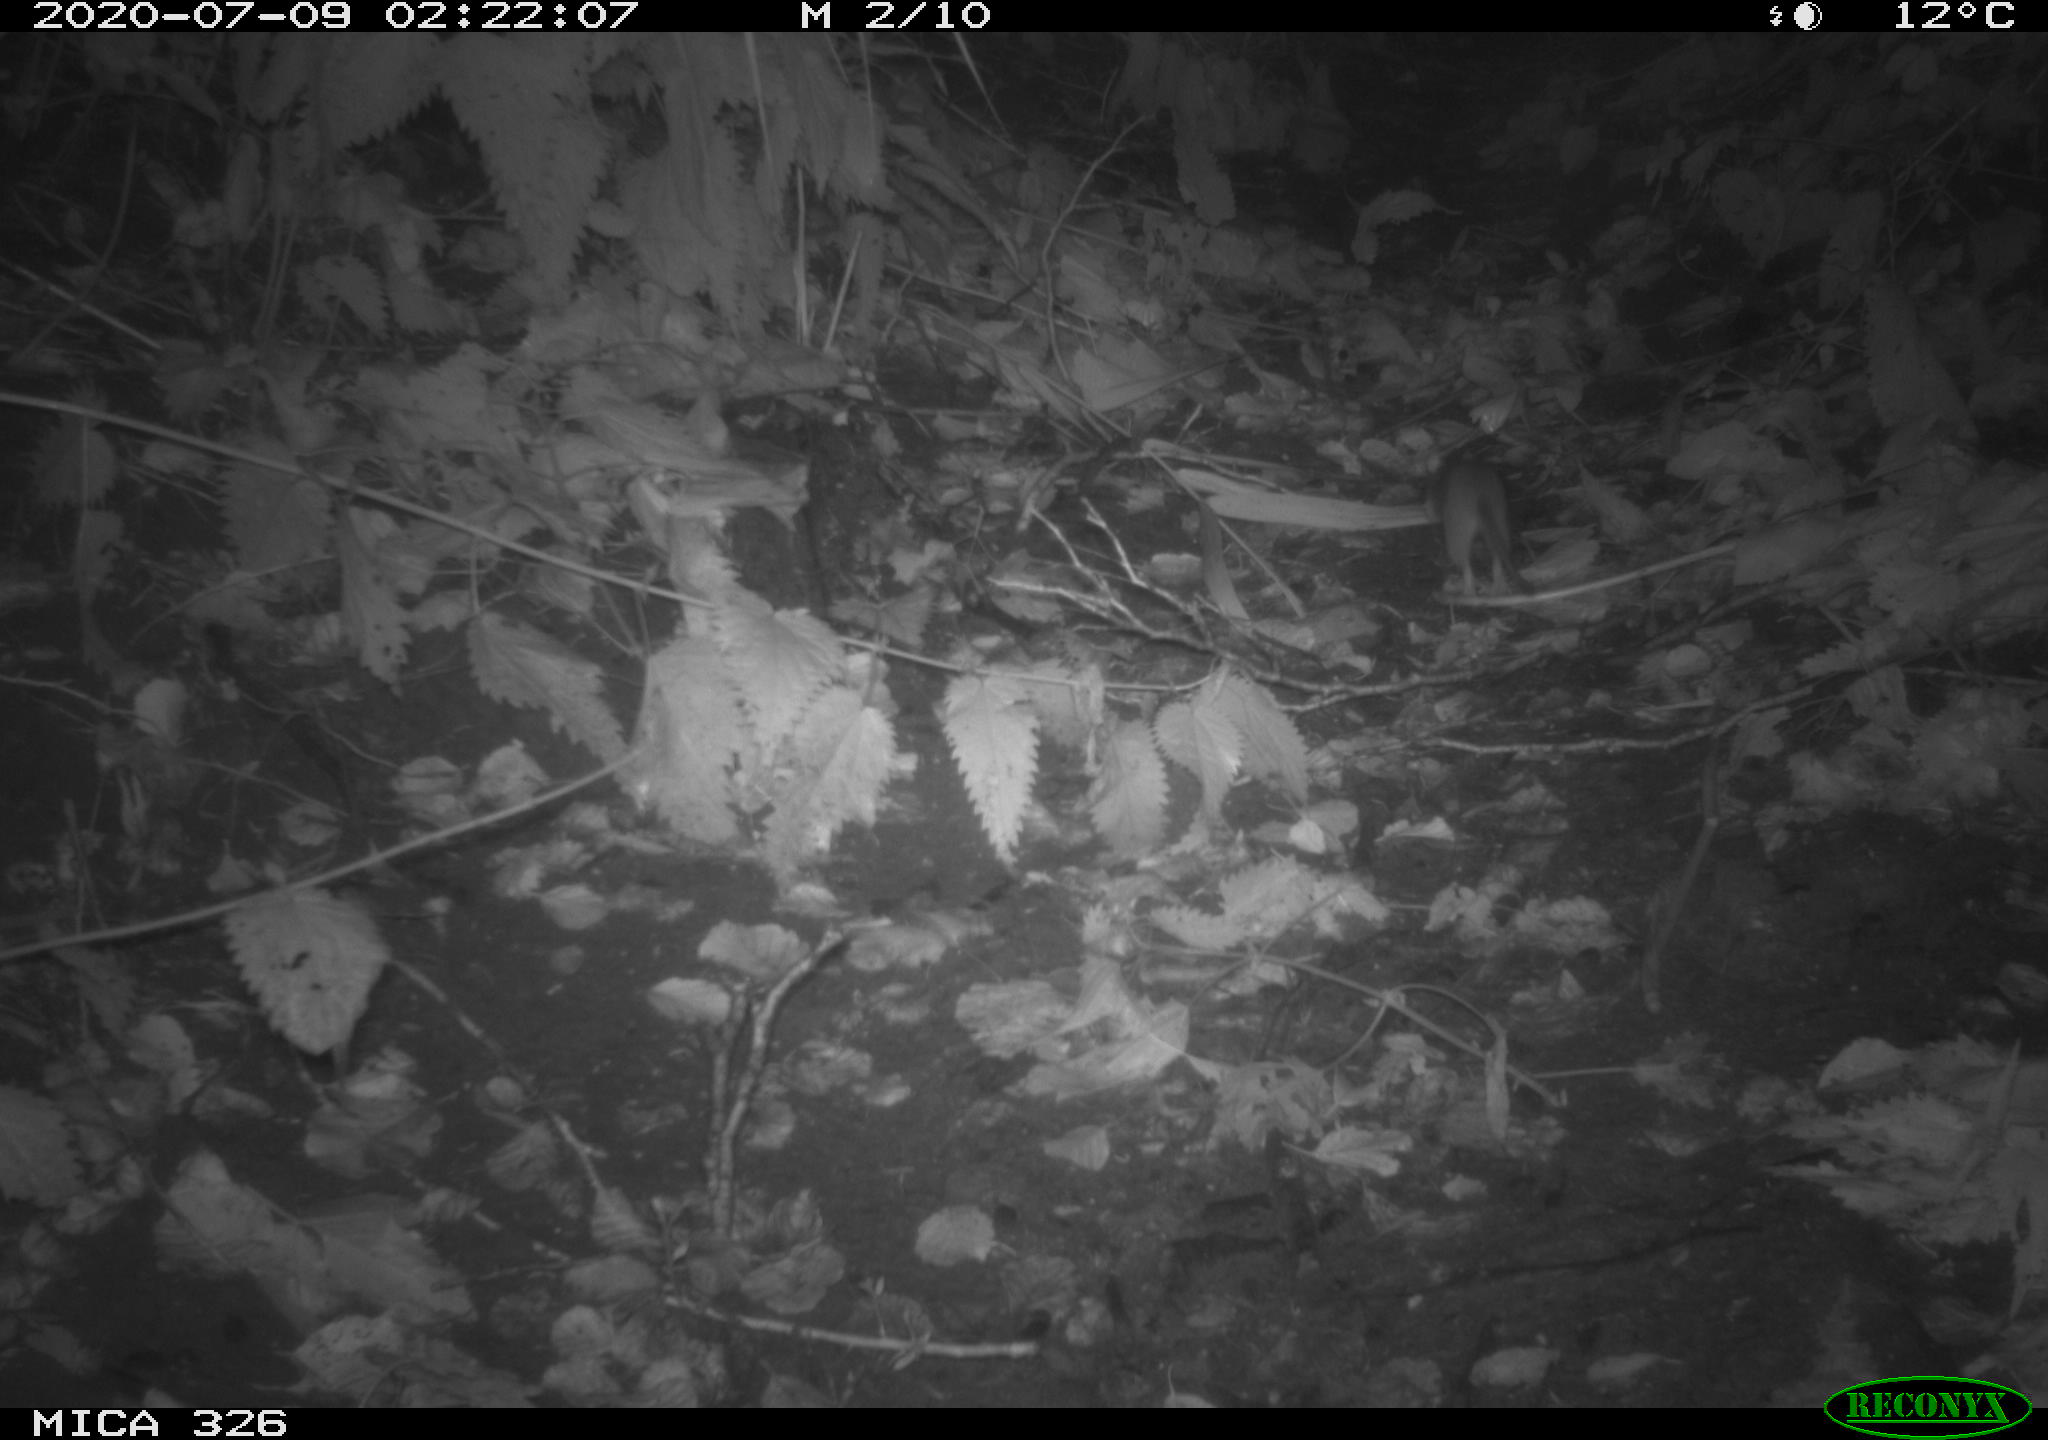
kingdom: Animalia
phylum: Chordata
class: Mammalia
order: Rodentia
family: Muridae
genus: Rattus
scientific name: Rattus norvegicus
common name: Brown rat
